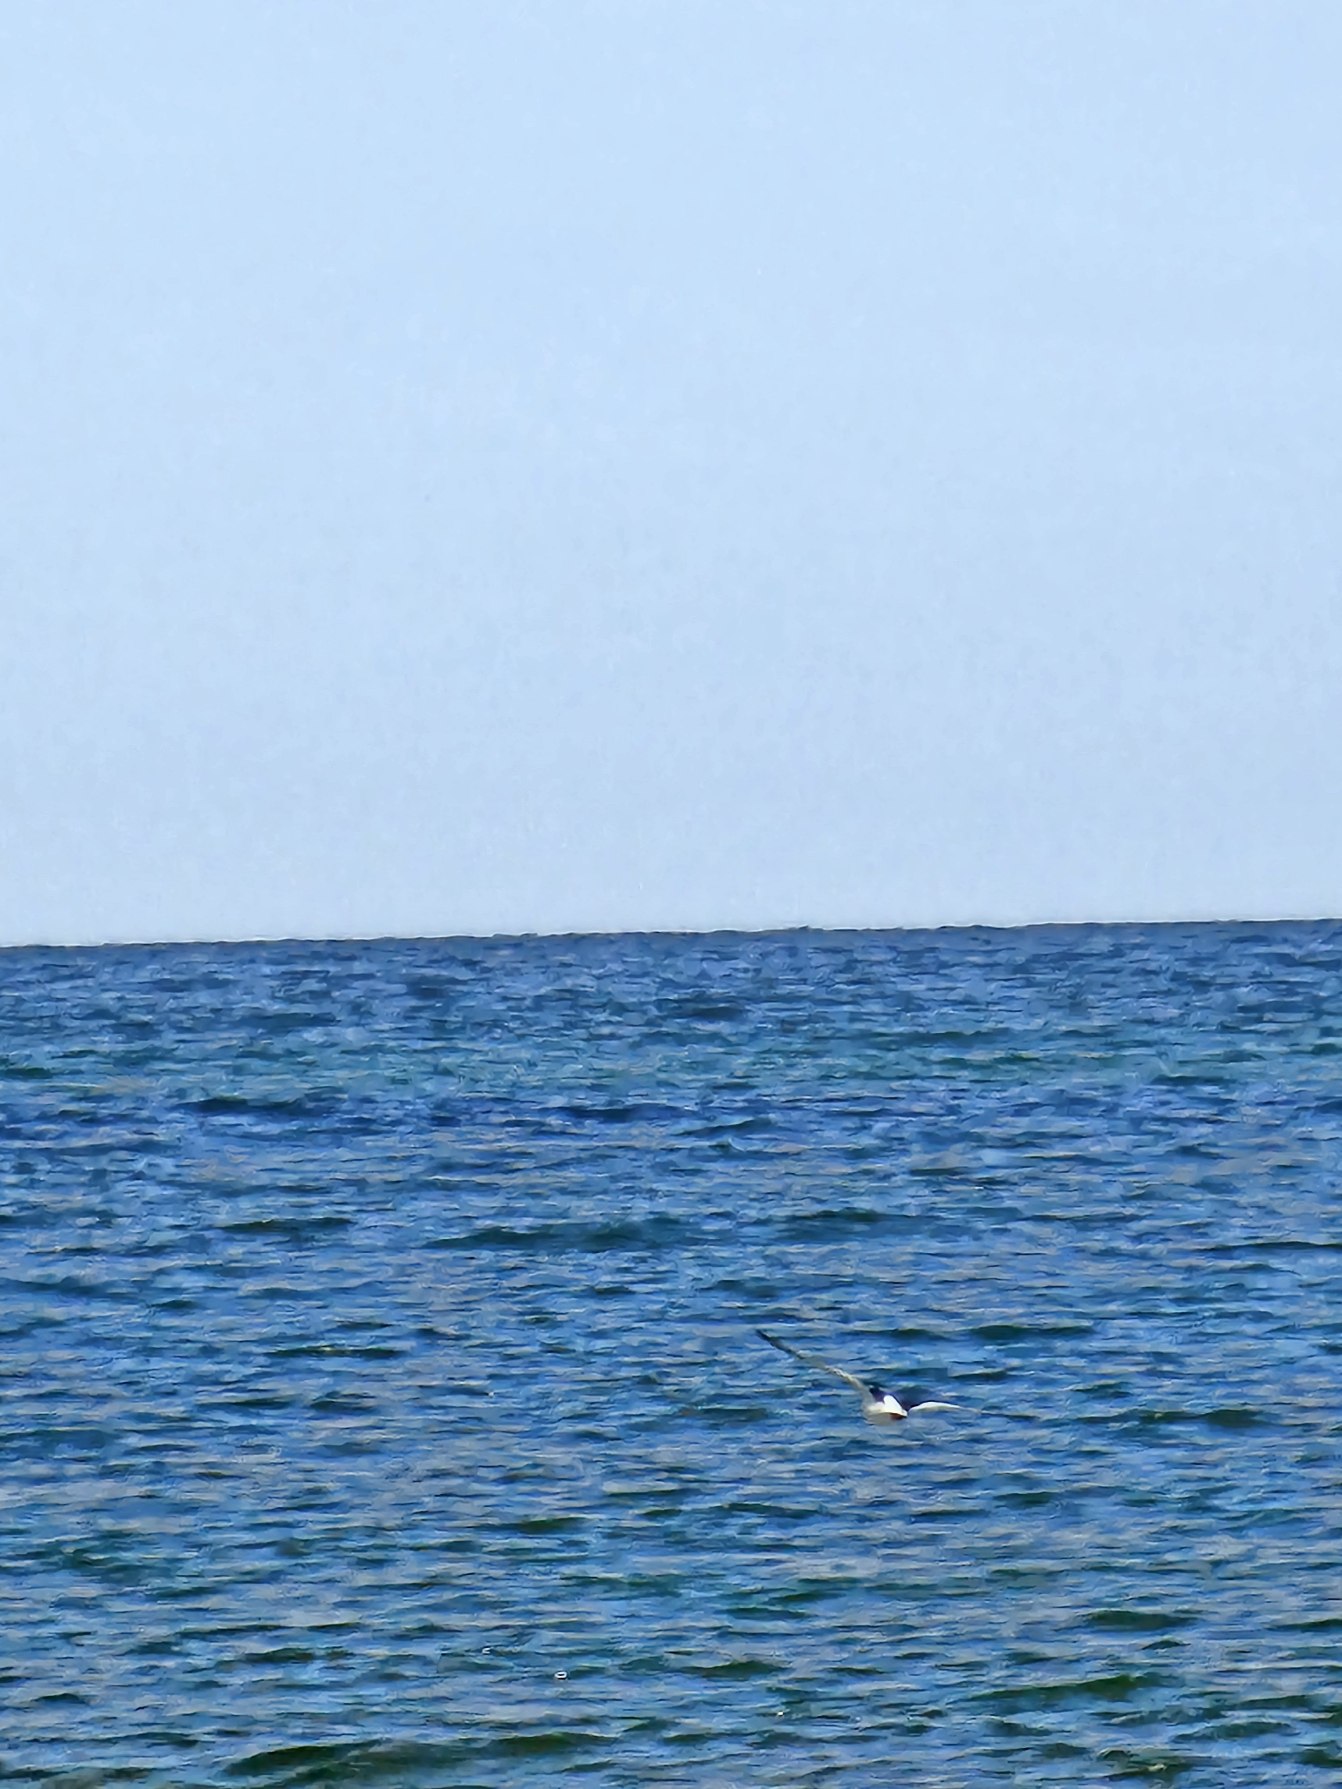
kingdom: Animalia
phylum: Chordata
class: Aves
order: Charadriiformes
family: Haematopodidae
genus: Haematopus
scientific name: Haematopus ostralegus
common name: Strandskade
